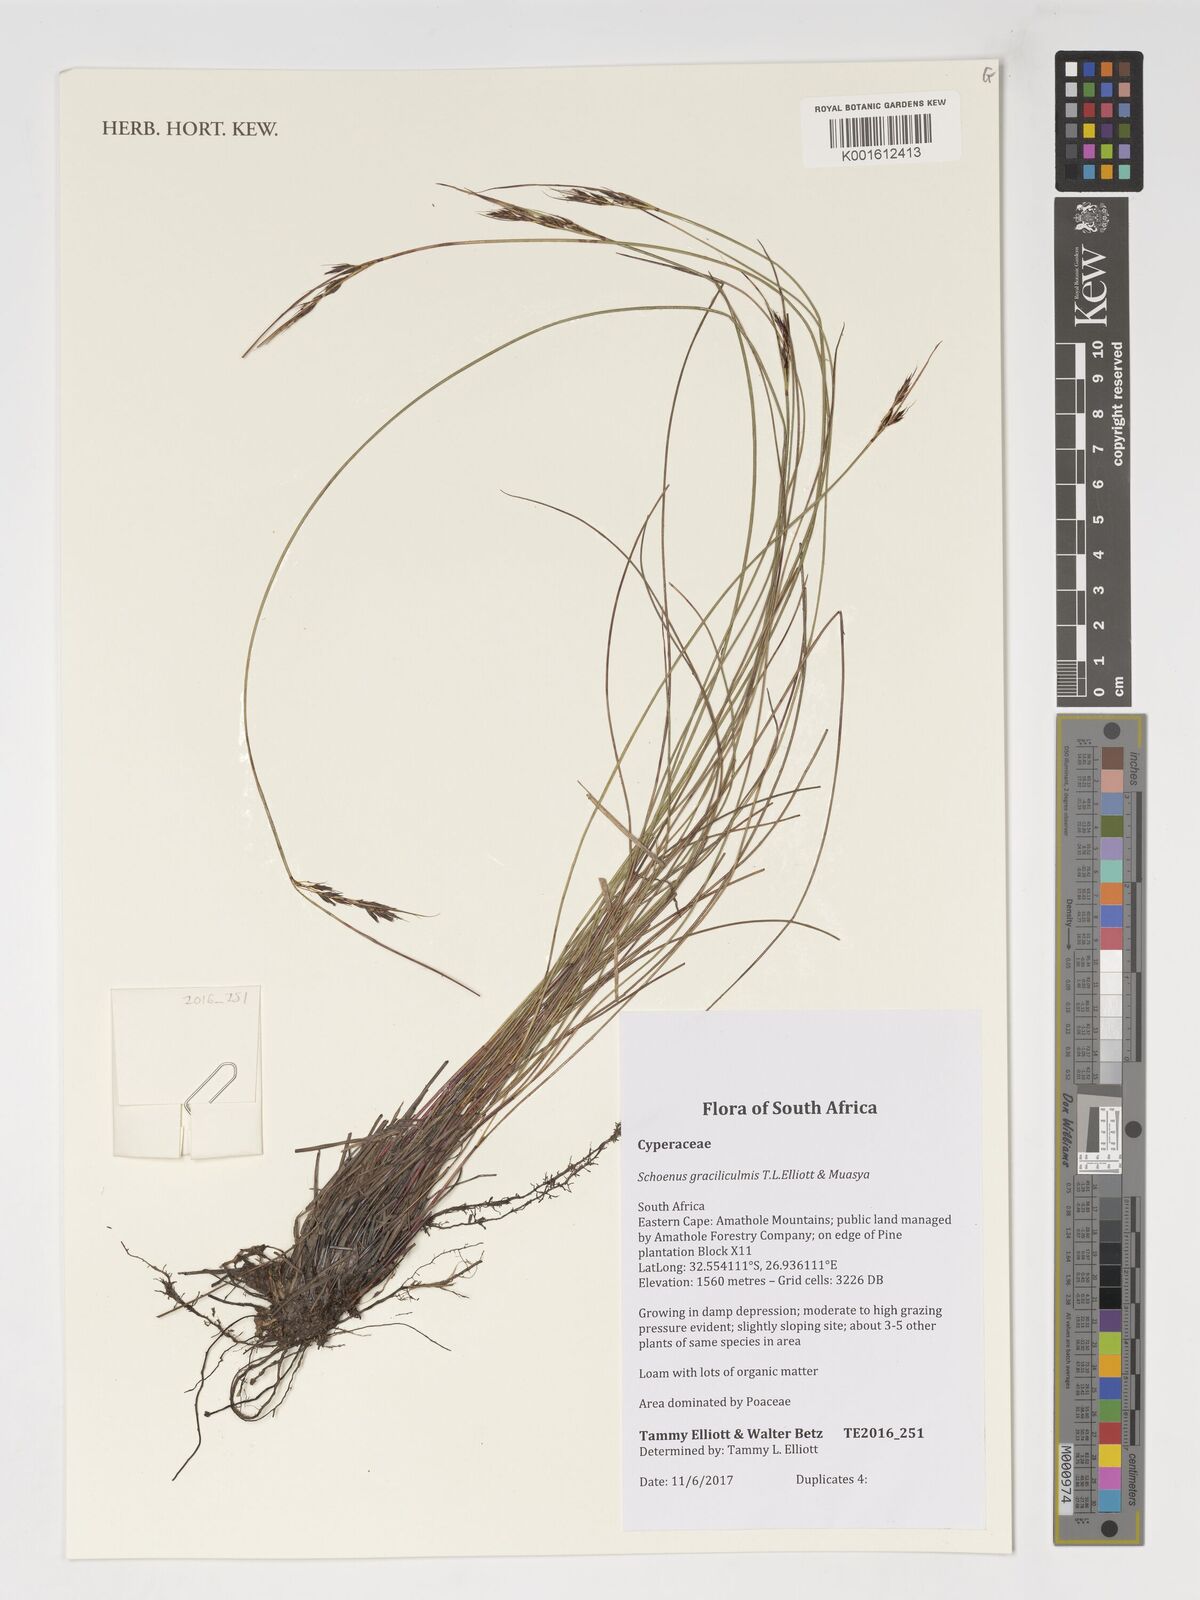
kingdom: Plantae
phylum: Tracheophyta
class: Liliopsida
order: Poales
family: Cyperaceae
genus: Schoenus
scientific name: Schoenus
